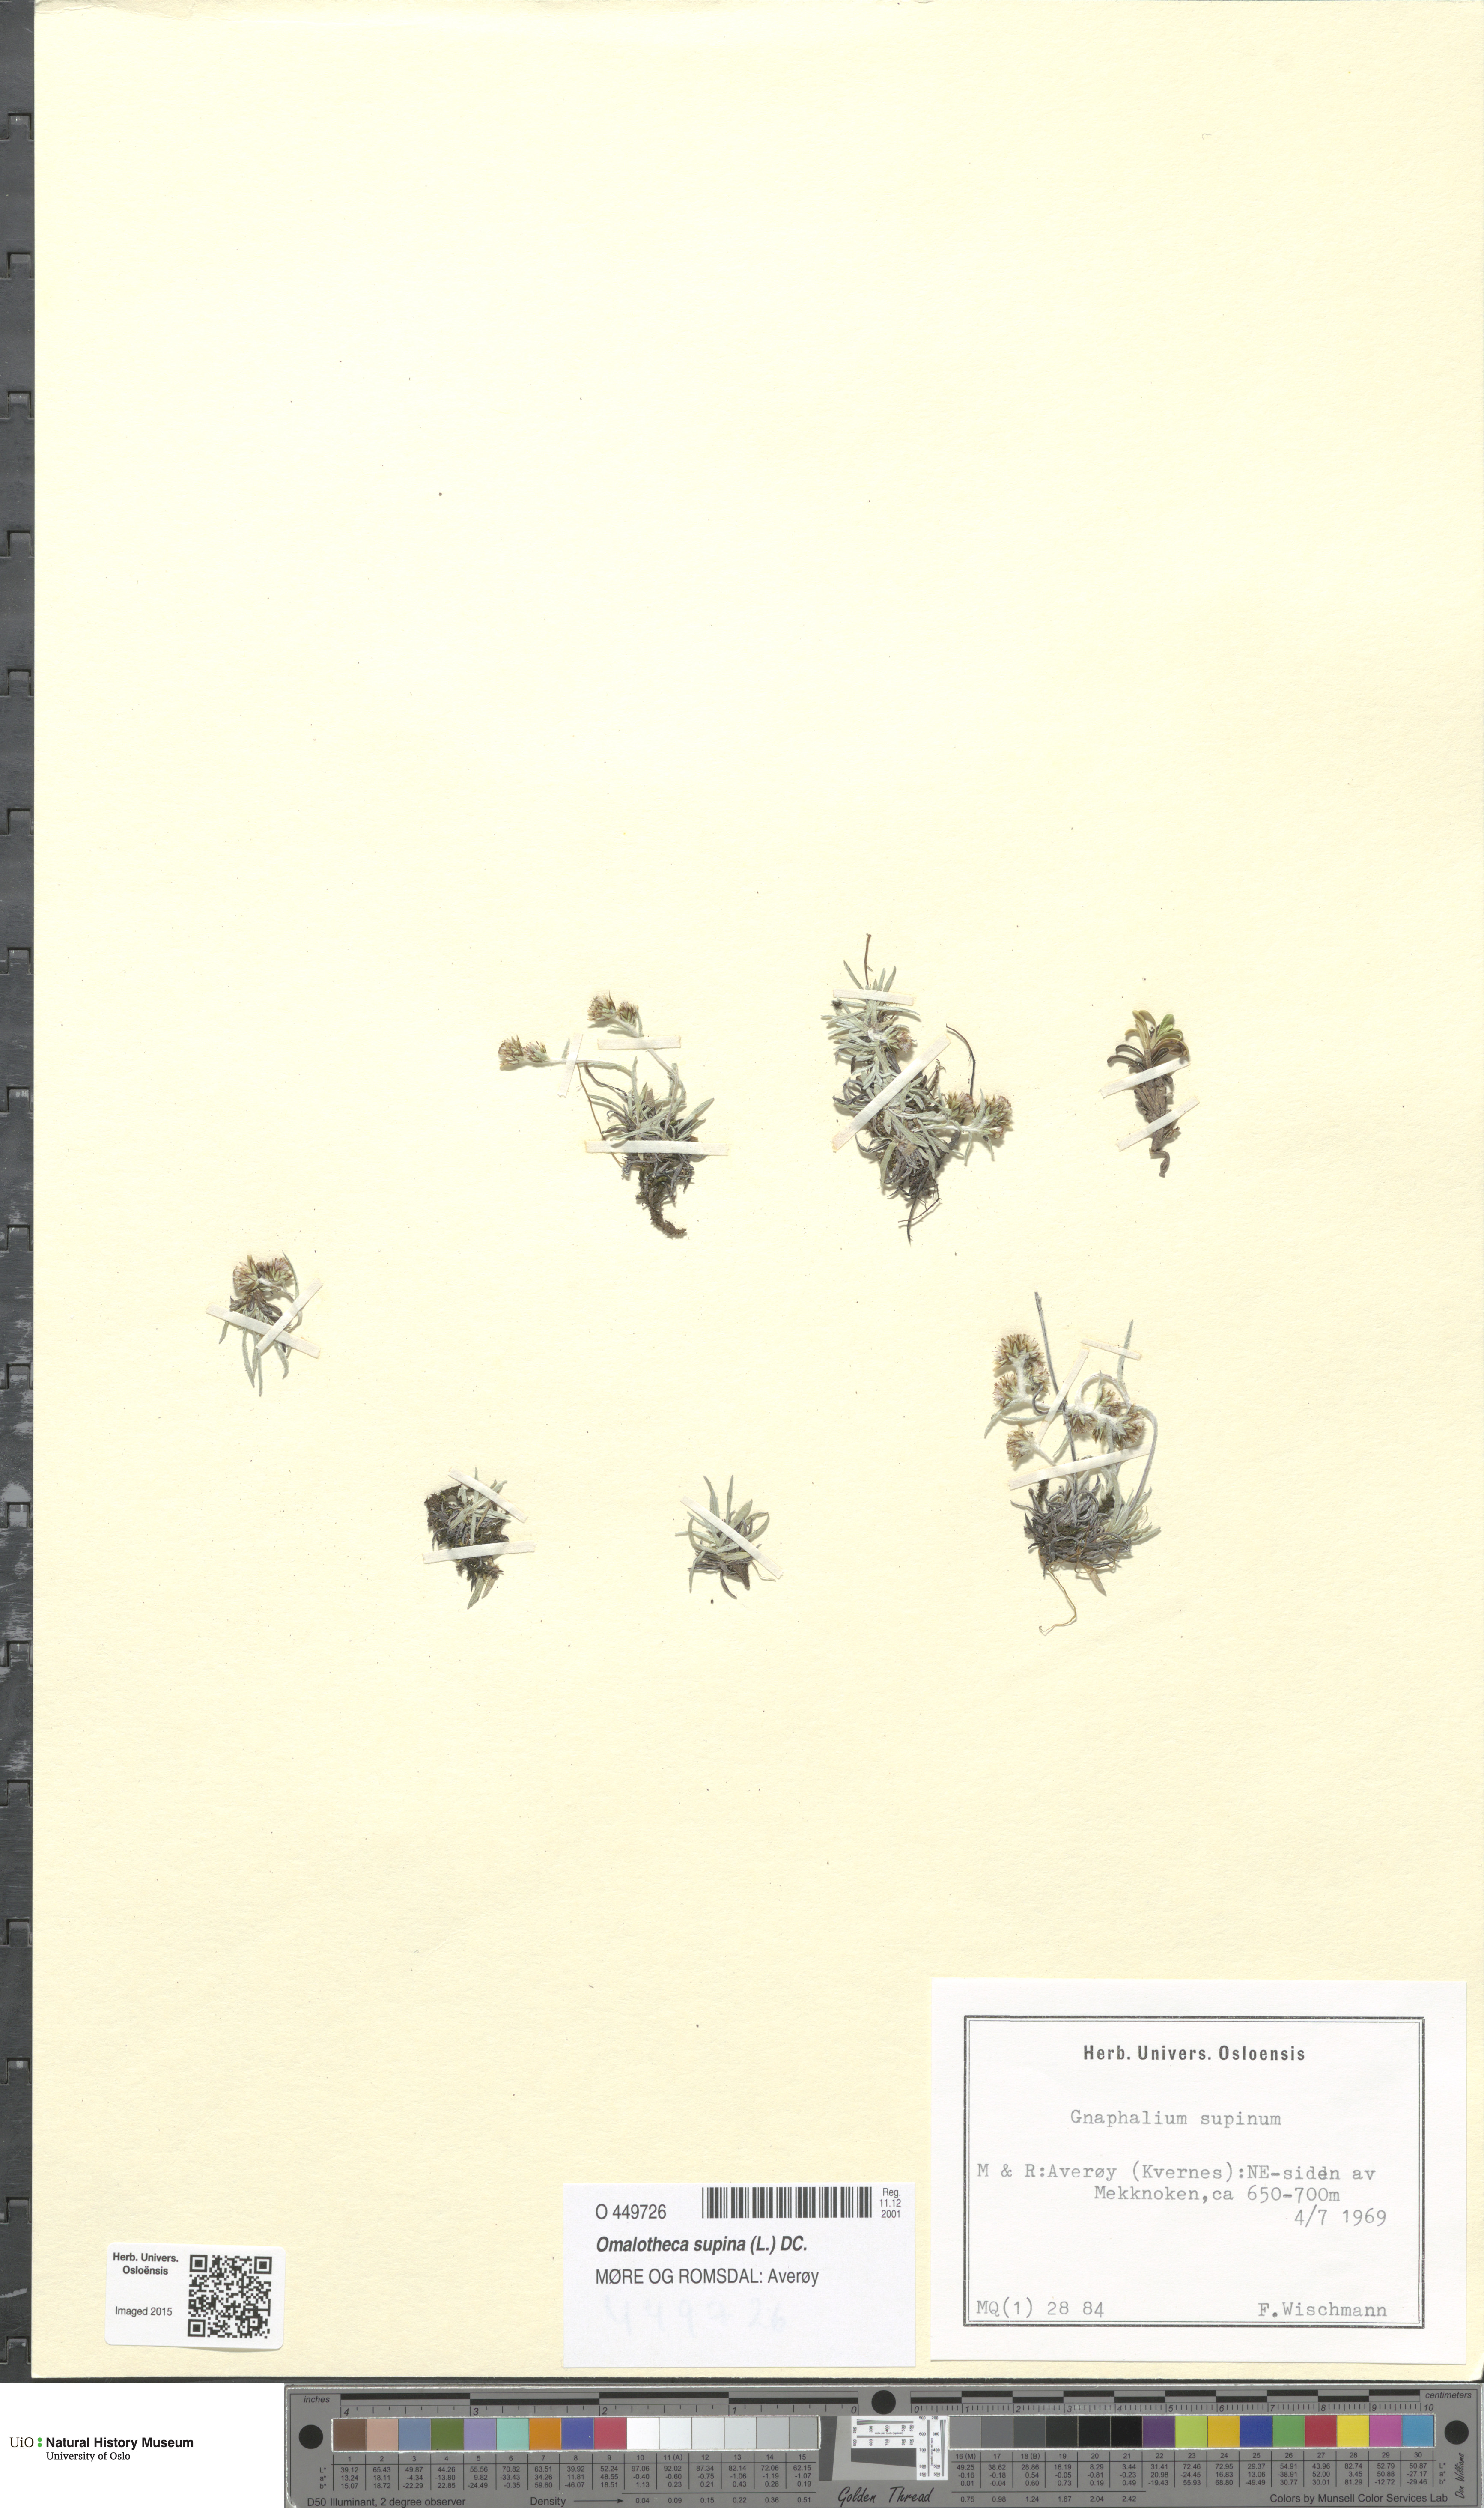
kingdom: Plantae
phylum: Tracheophyta
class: Magnoliopsida
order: Asterales
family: Asteraceae
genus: Omalotheca
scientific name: Omalotheca supina
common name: Alpine arctic-cudweed
